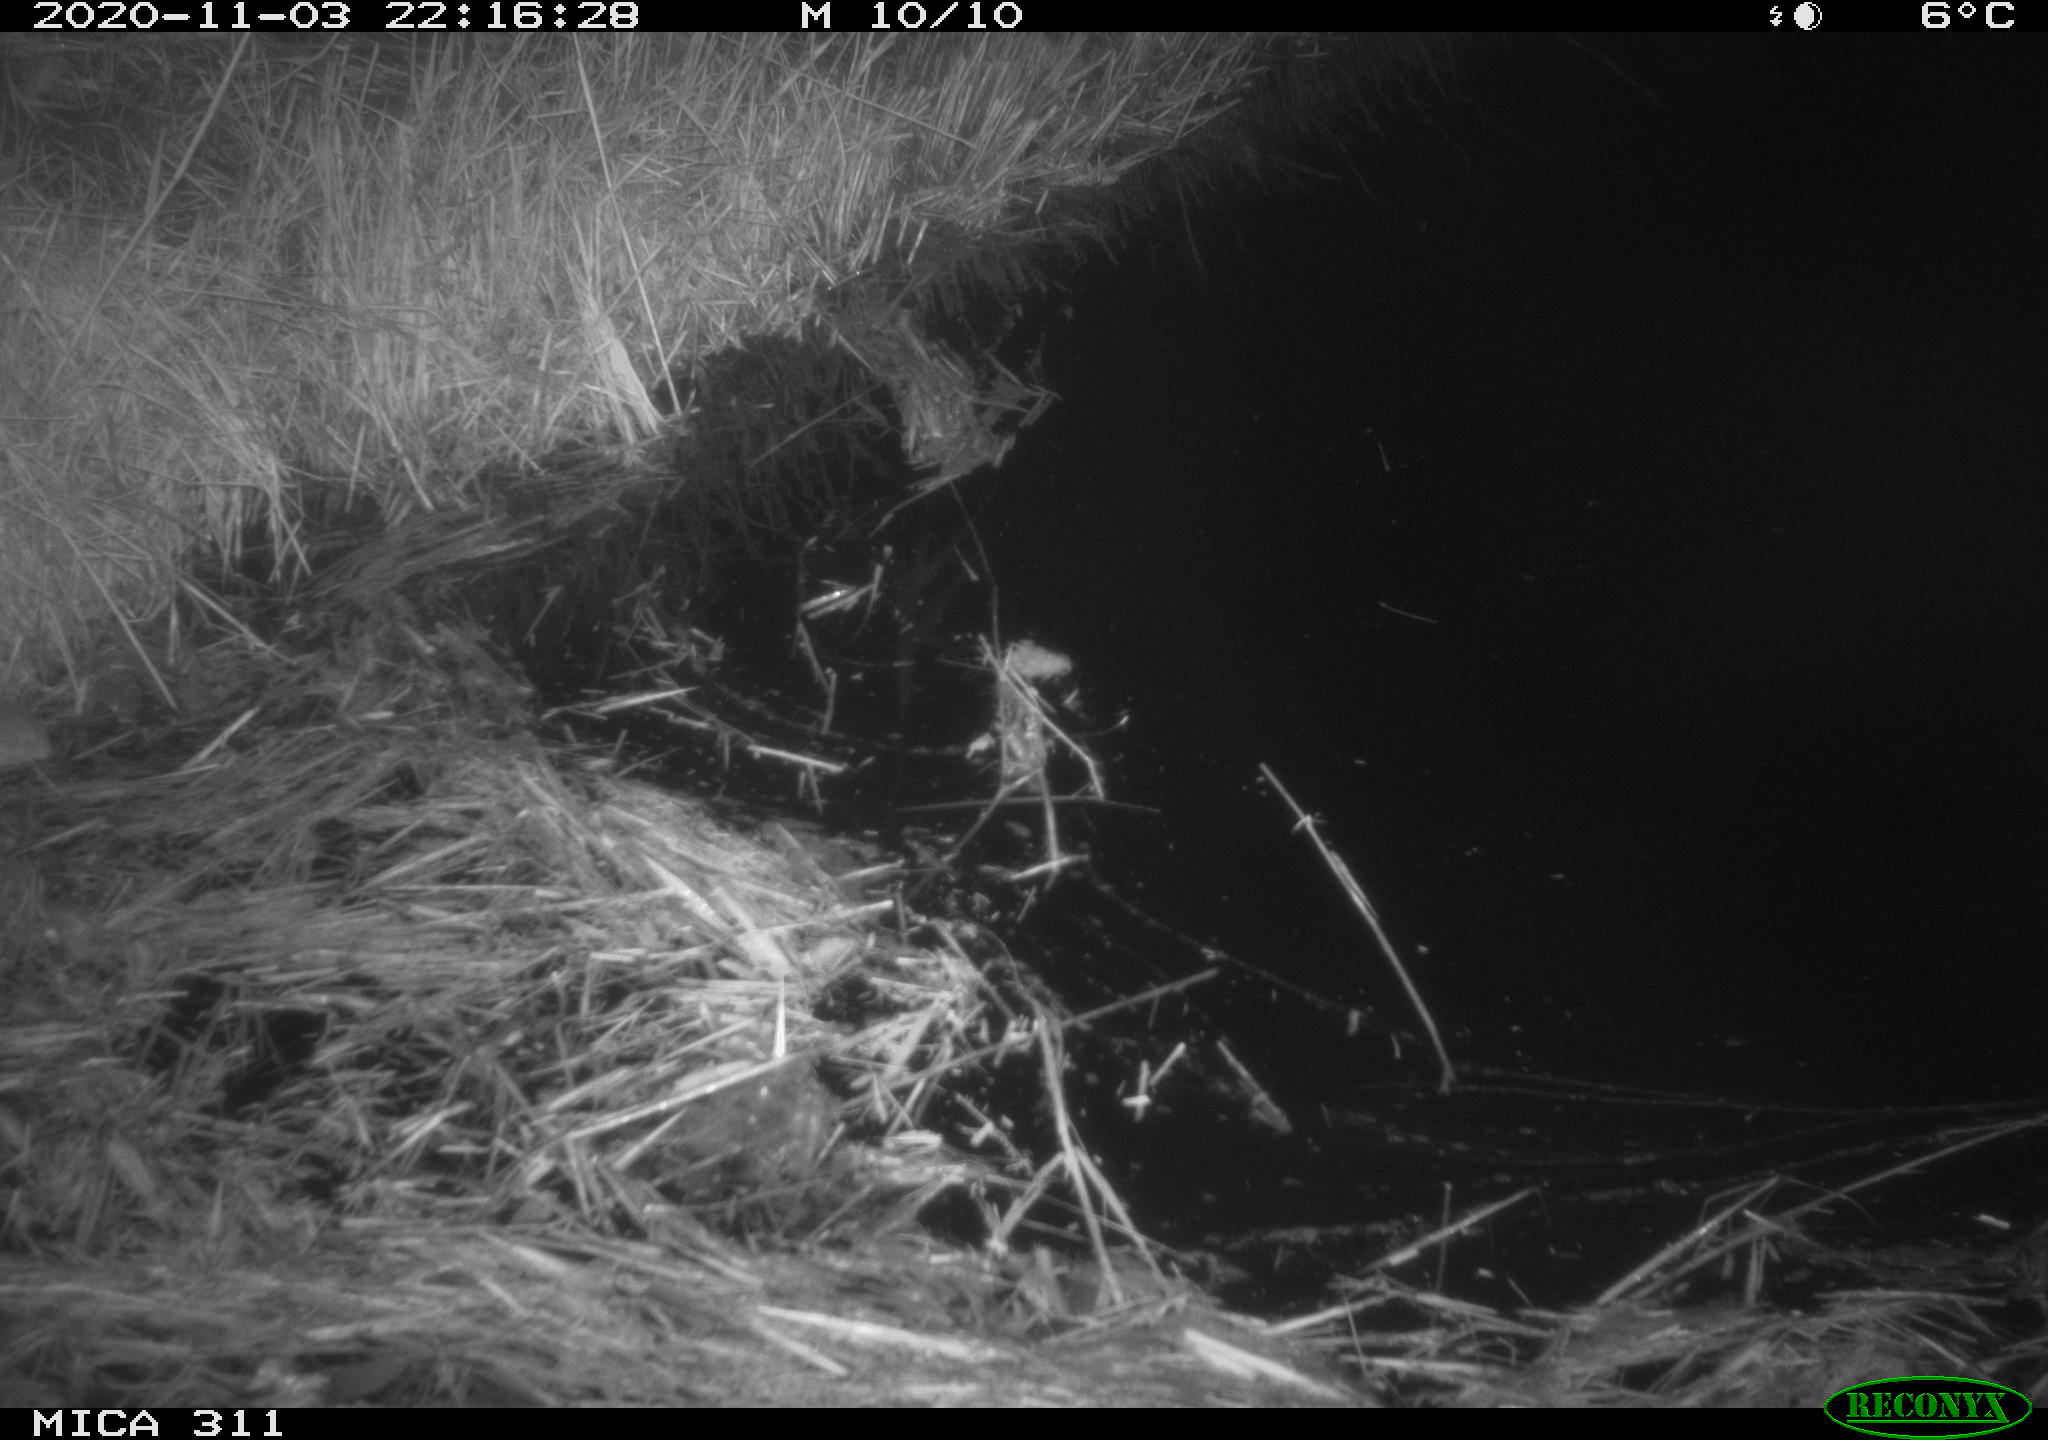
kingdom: Animalia
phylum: Chordata
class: Mammalia
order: Rodentia
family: Muridae
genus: Rattus
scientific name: Rattus norvegicus
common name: Brown rat
